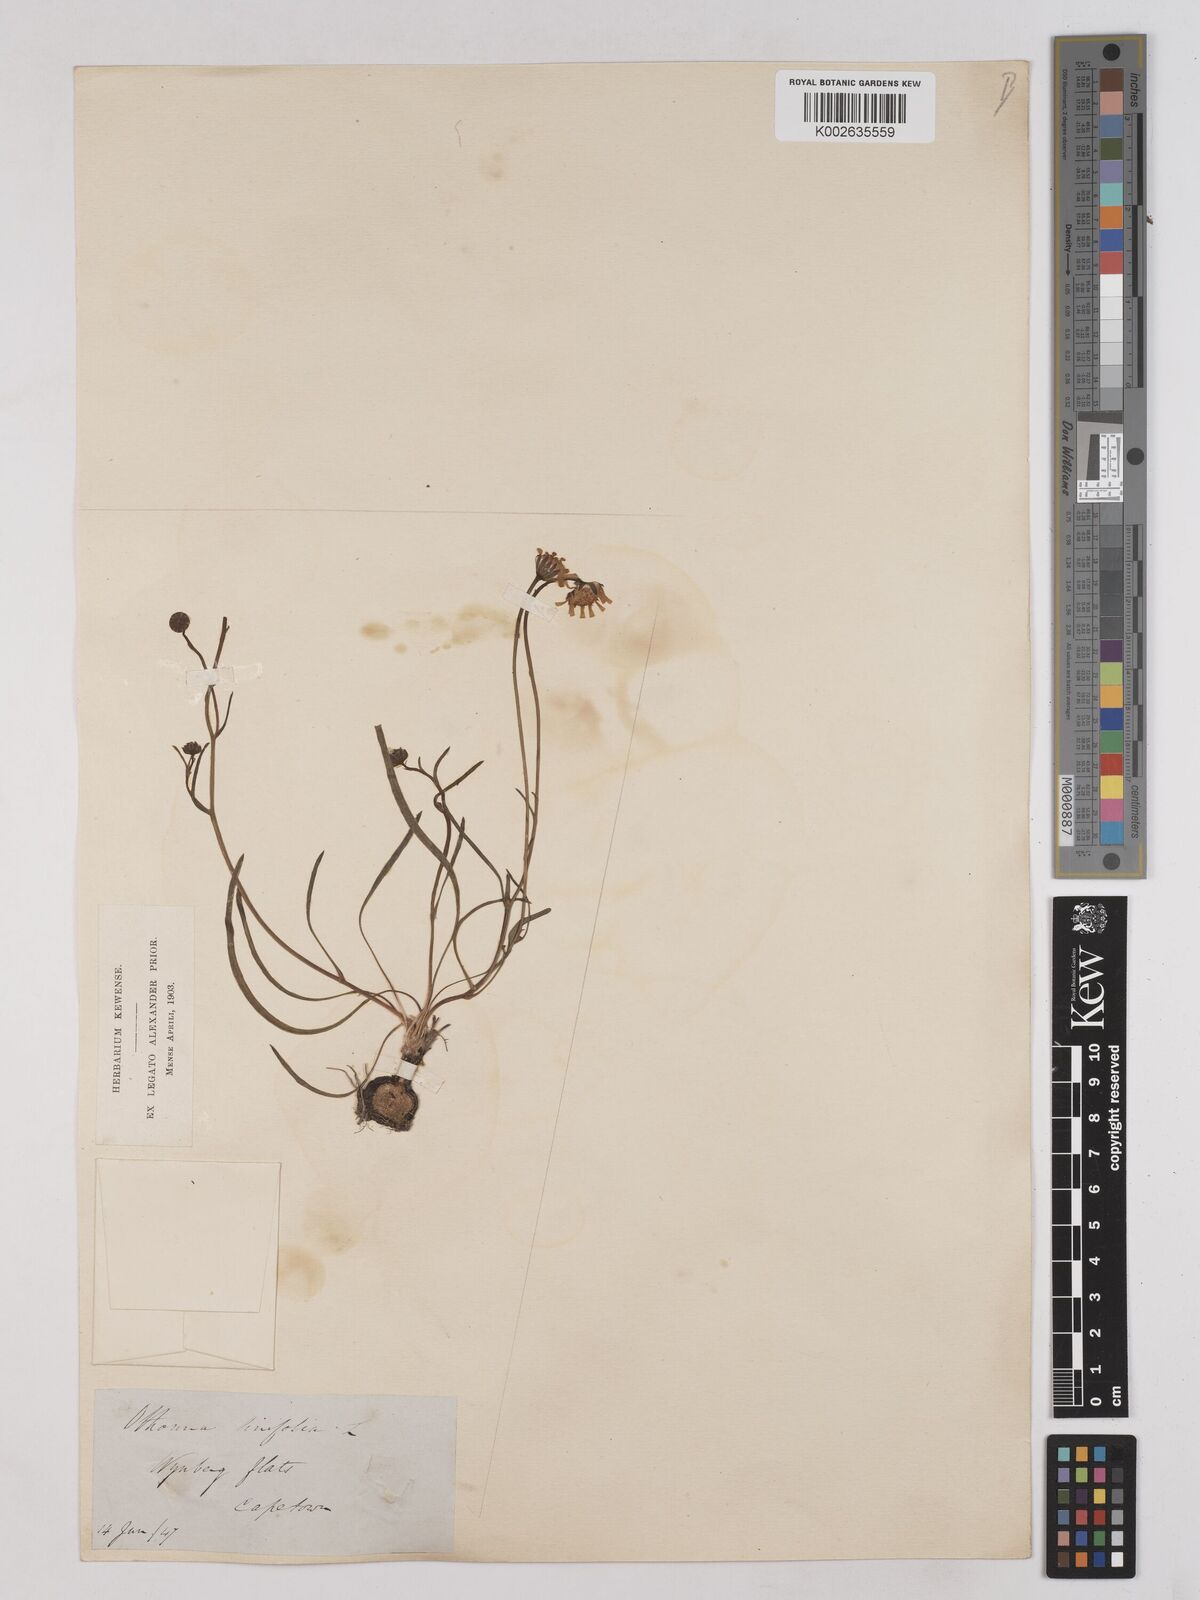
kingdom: Plantae
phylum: Tracheophyta
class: Magnoliopsida
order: Asterales
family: Asteraceae
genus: Othonna
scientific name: Othonna stenophylla
